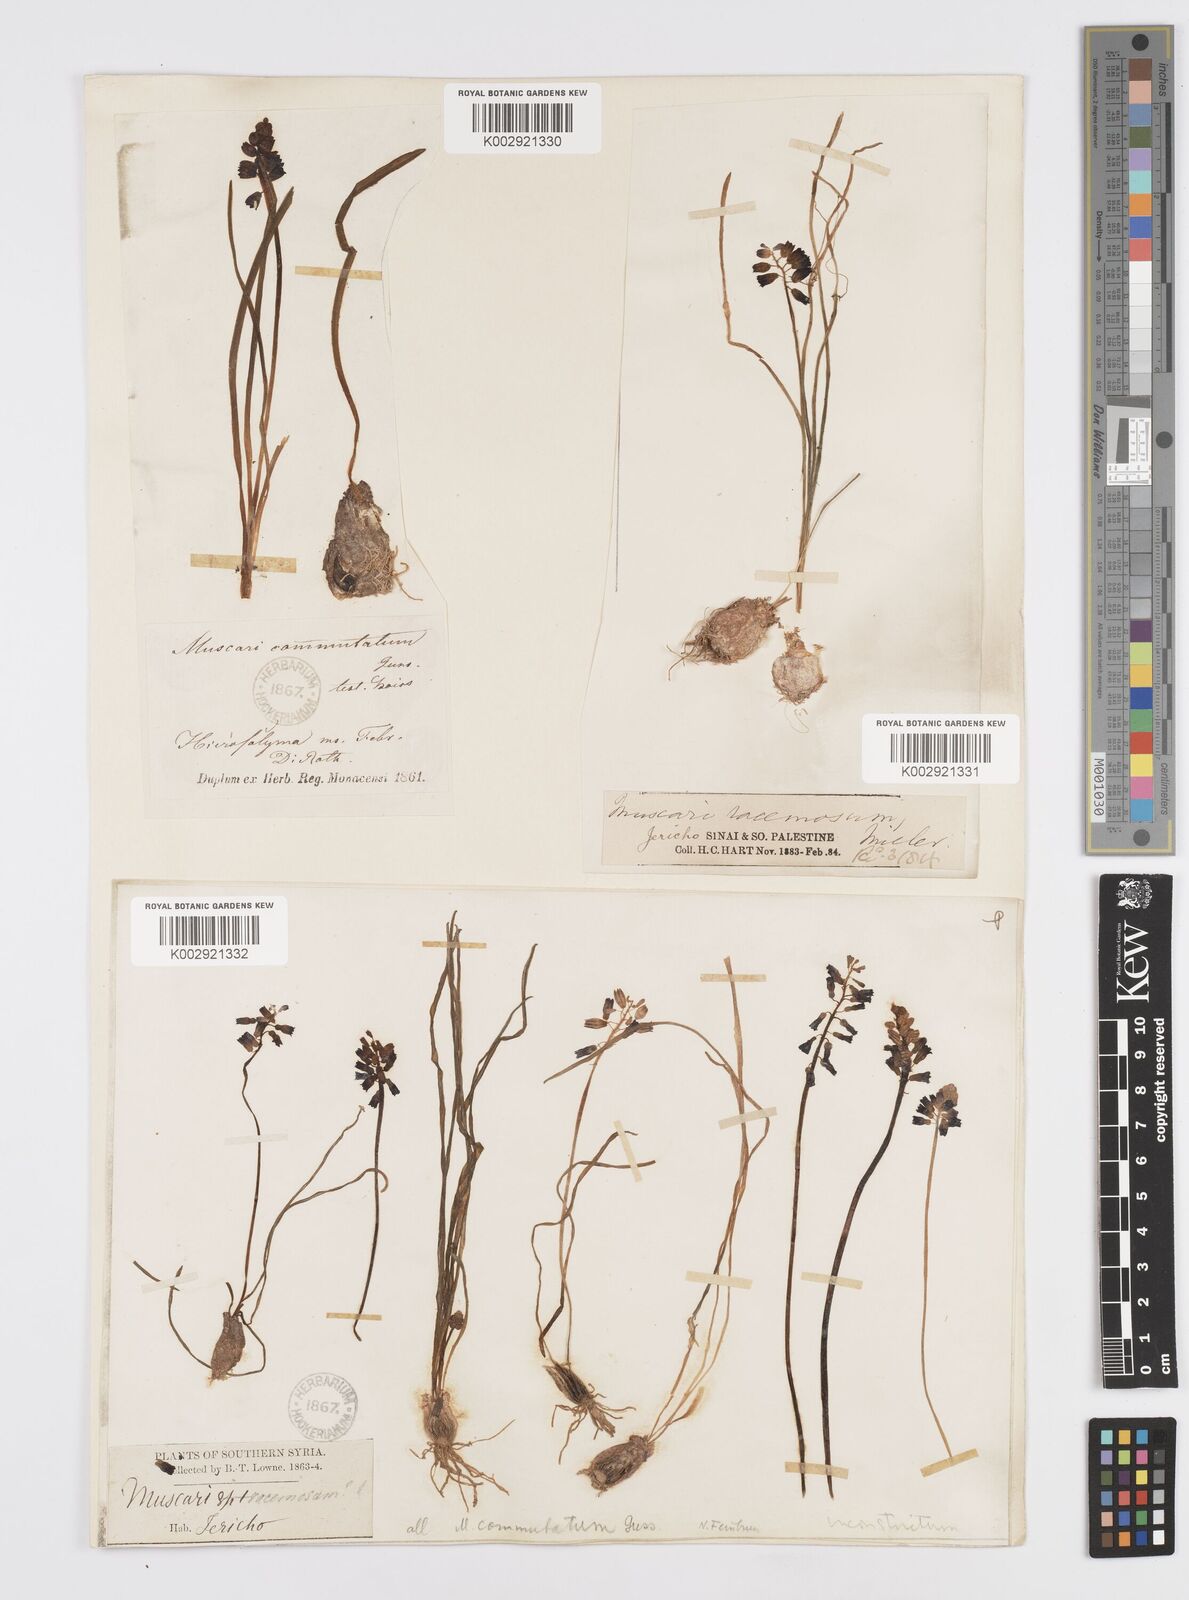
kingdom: Plantae
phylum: Tracheophyta
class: Liliopsida
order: Asparagales
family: Asparagaceae
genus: Muscari
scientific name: Muscari inconstrictum
